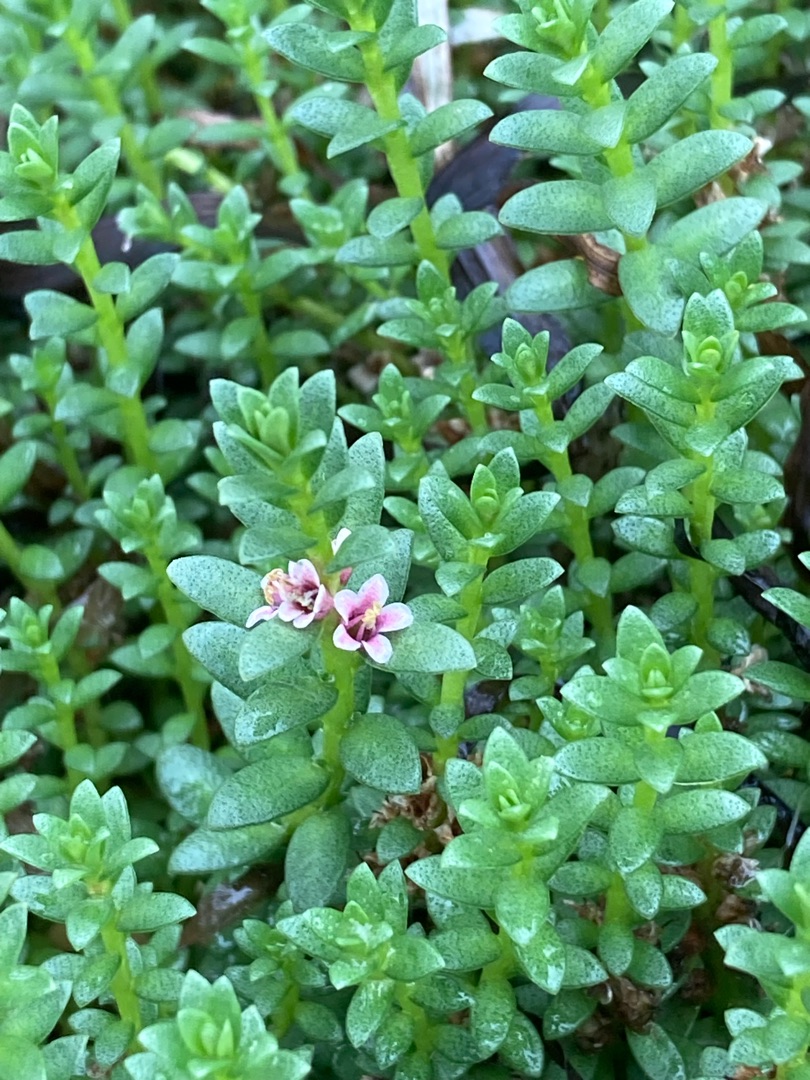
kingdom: Plantae
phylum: Tracheophyta
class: Magnoliopsida
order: Ericales
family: Primulaceae
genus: Lysimachia
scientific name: Lysimachia maritima
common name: Sandkryb
